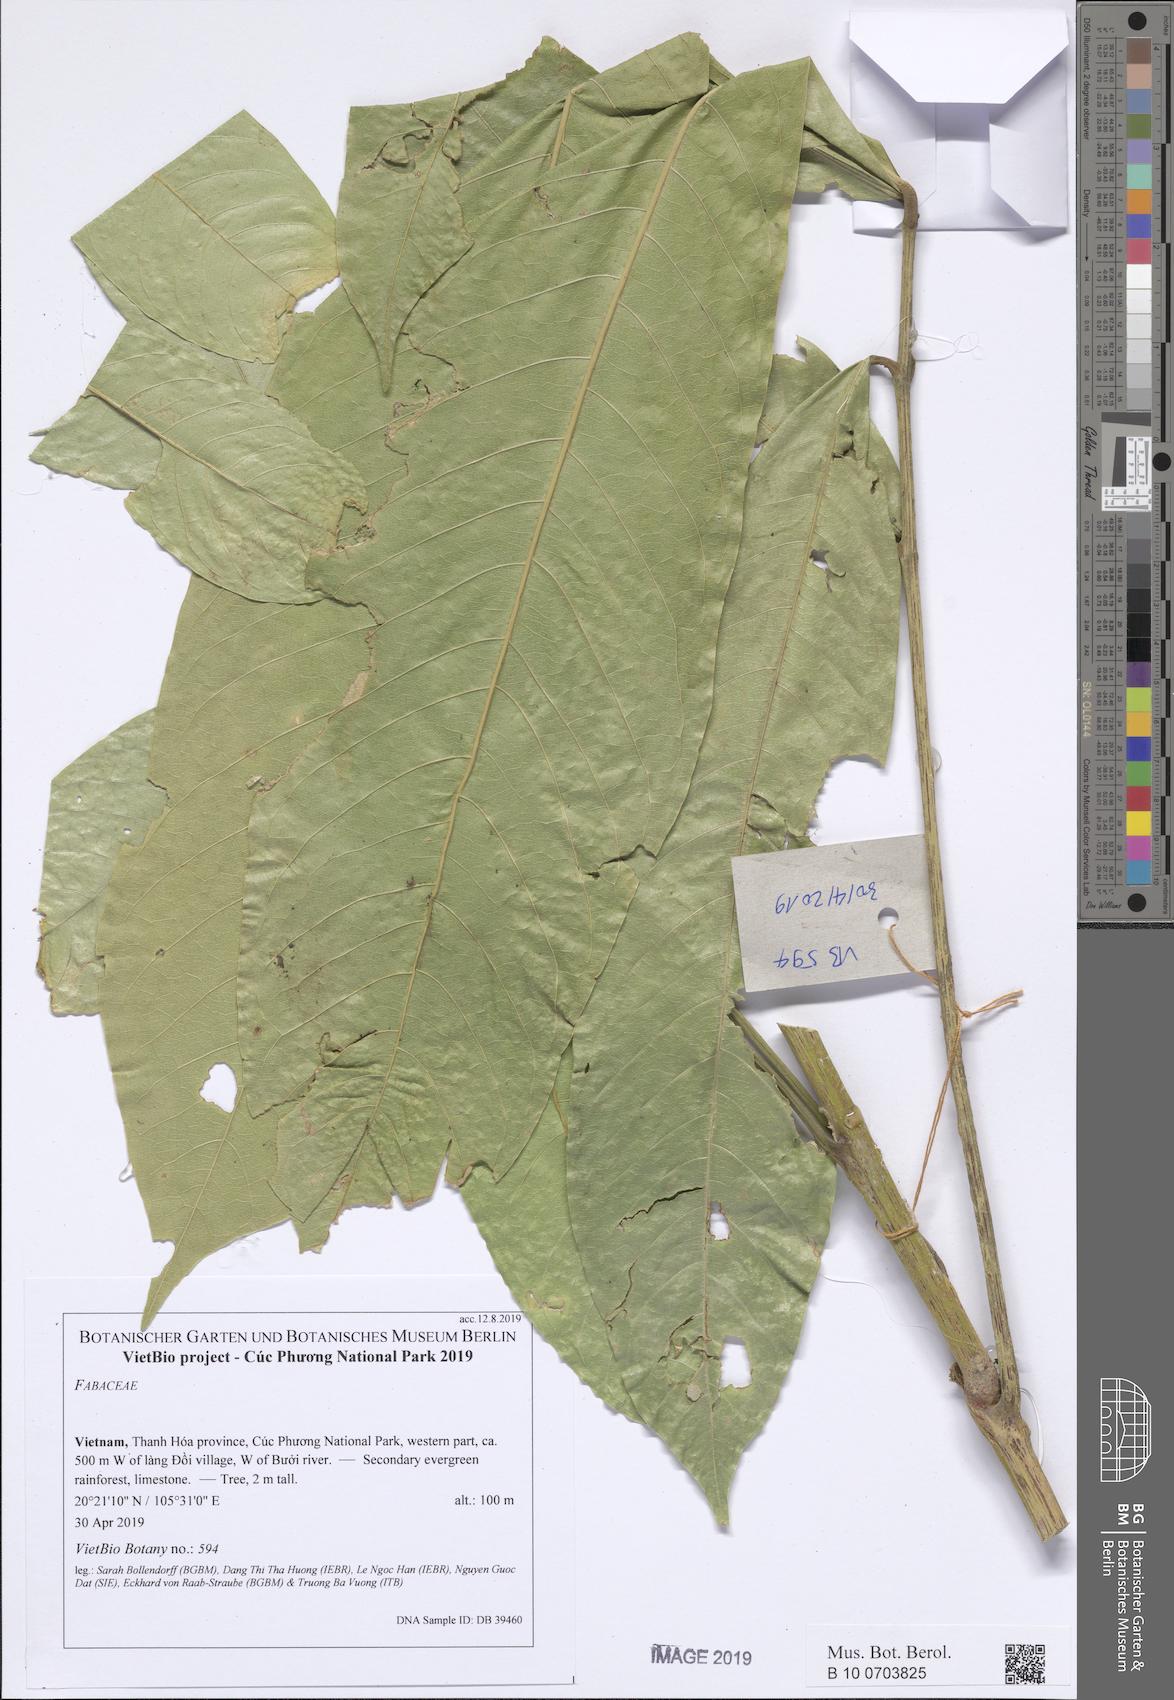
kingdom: Plantae
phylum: Tracheophyta
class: Magnoliopsida
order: Fabales
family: Fabaceae
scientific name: Fabaceae
